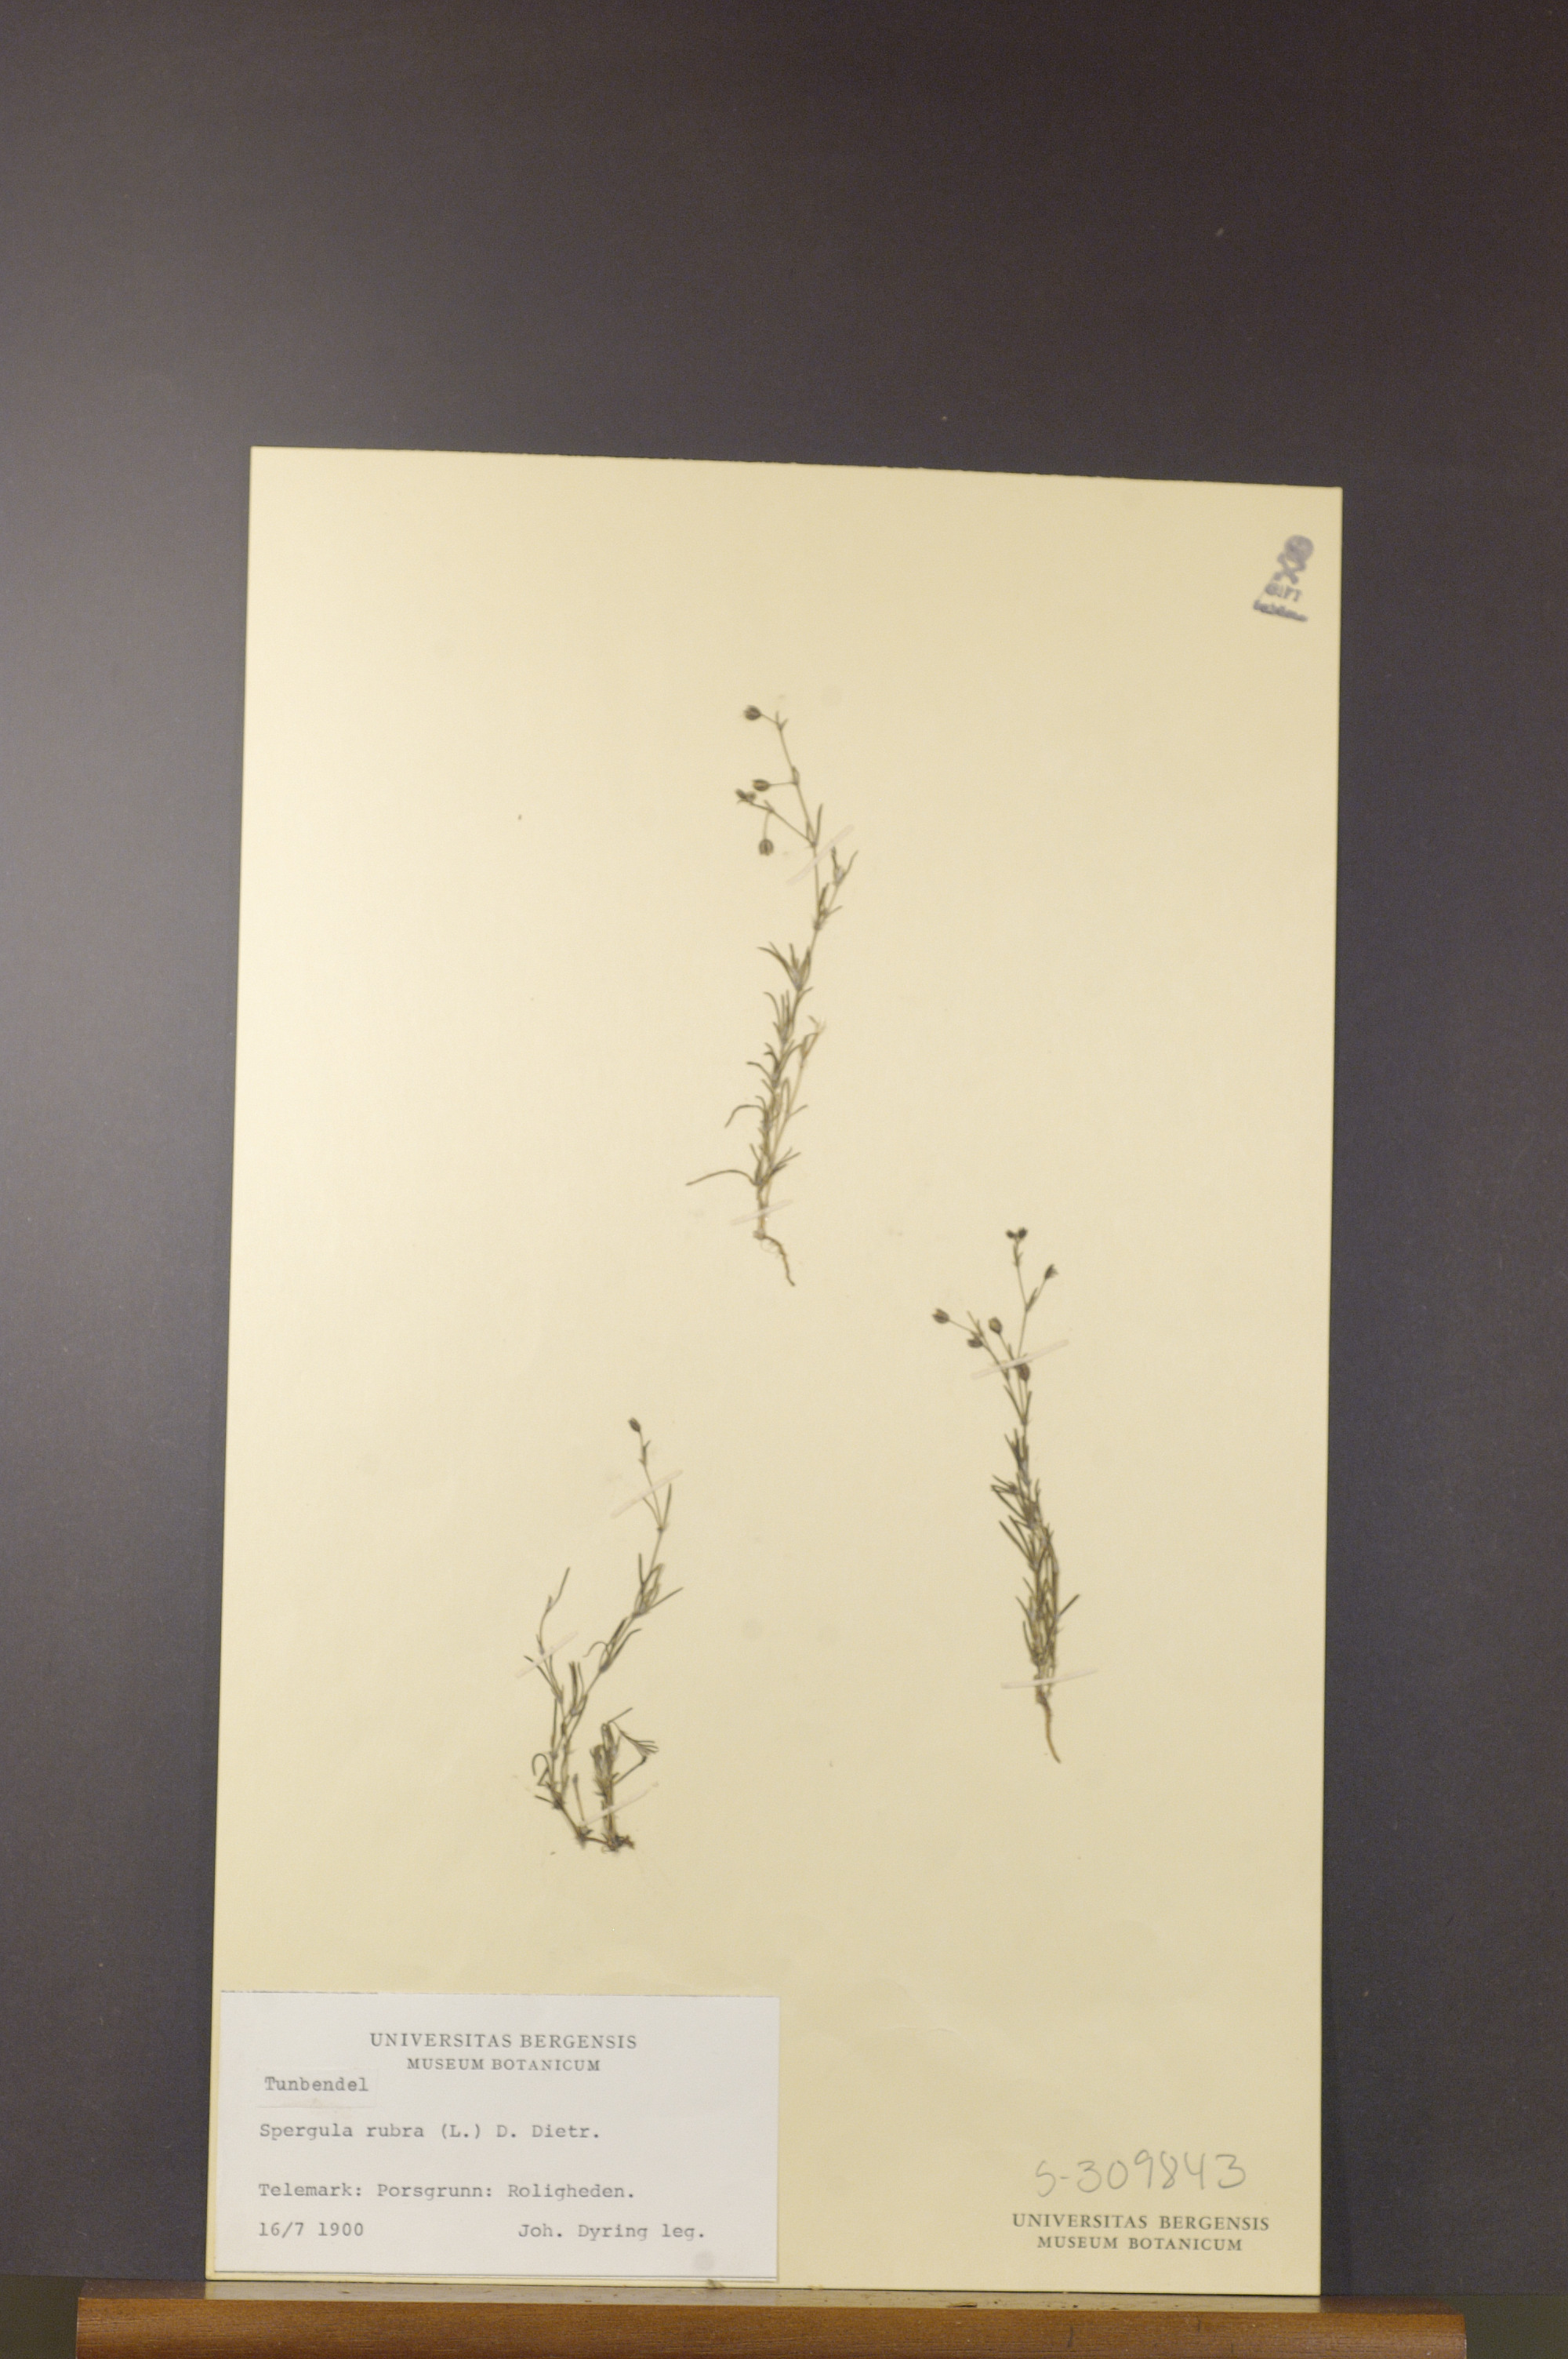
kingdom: Plantae
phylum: Tracheophyta
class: Magnoliopsida
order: Caryophyllales
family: Caryophyllaceae
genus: Spergularia
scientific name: Spergularia rubra
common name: Red sand-spurrey
